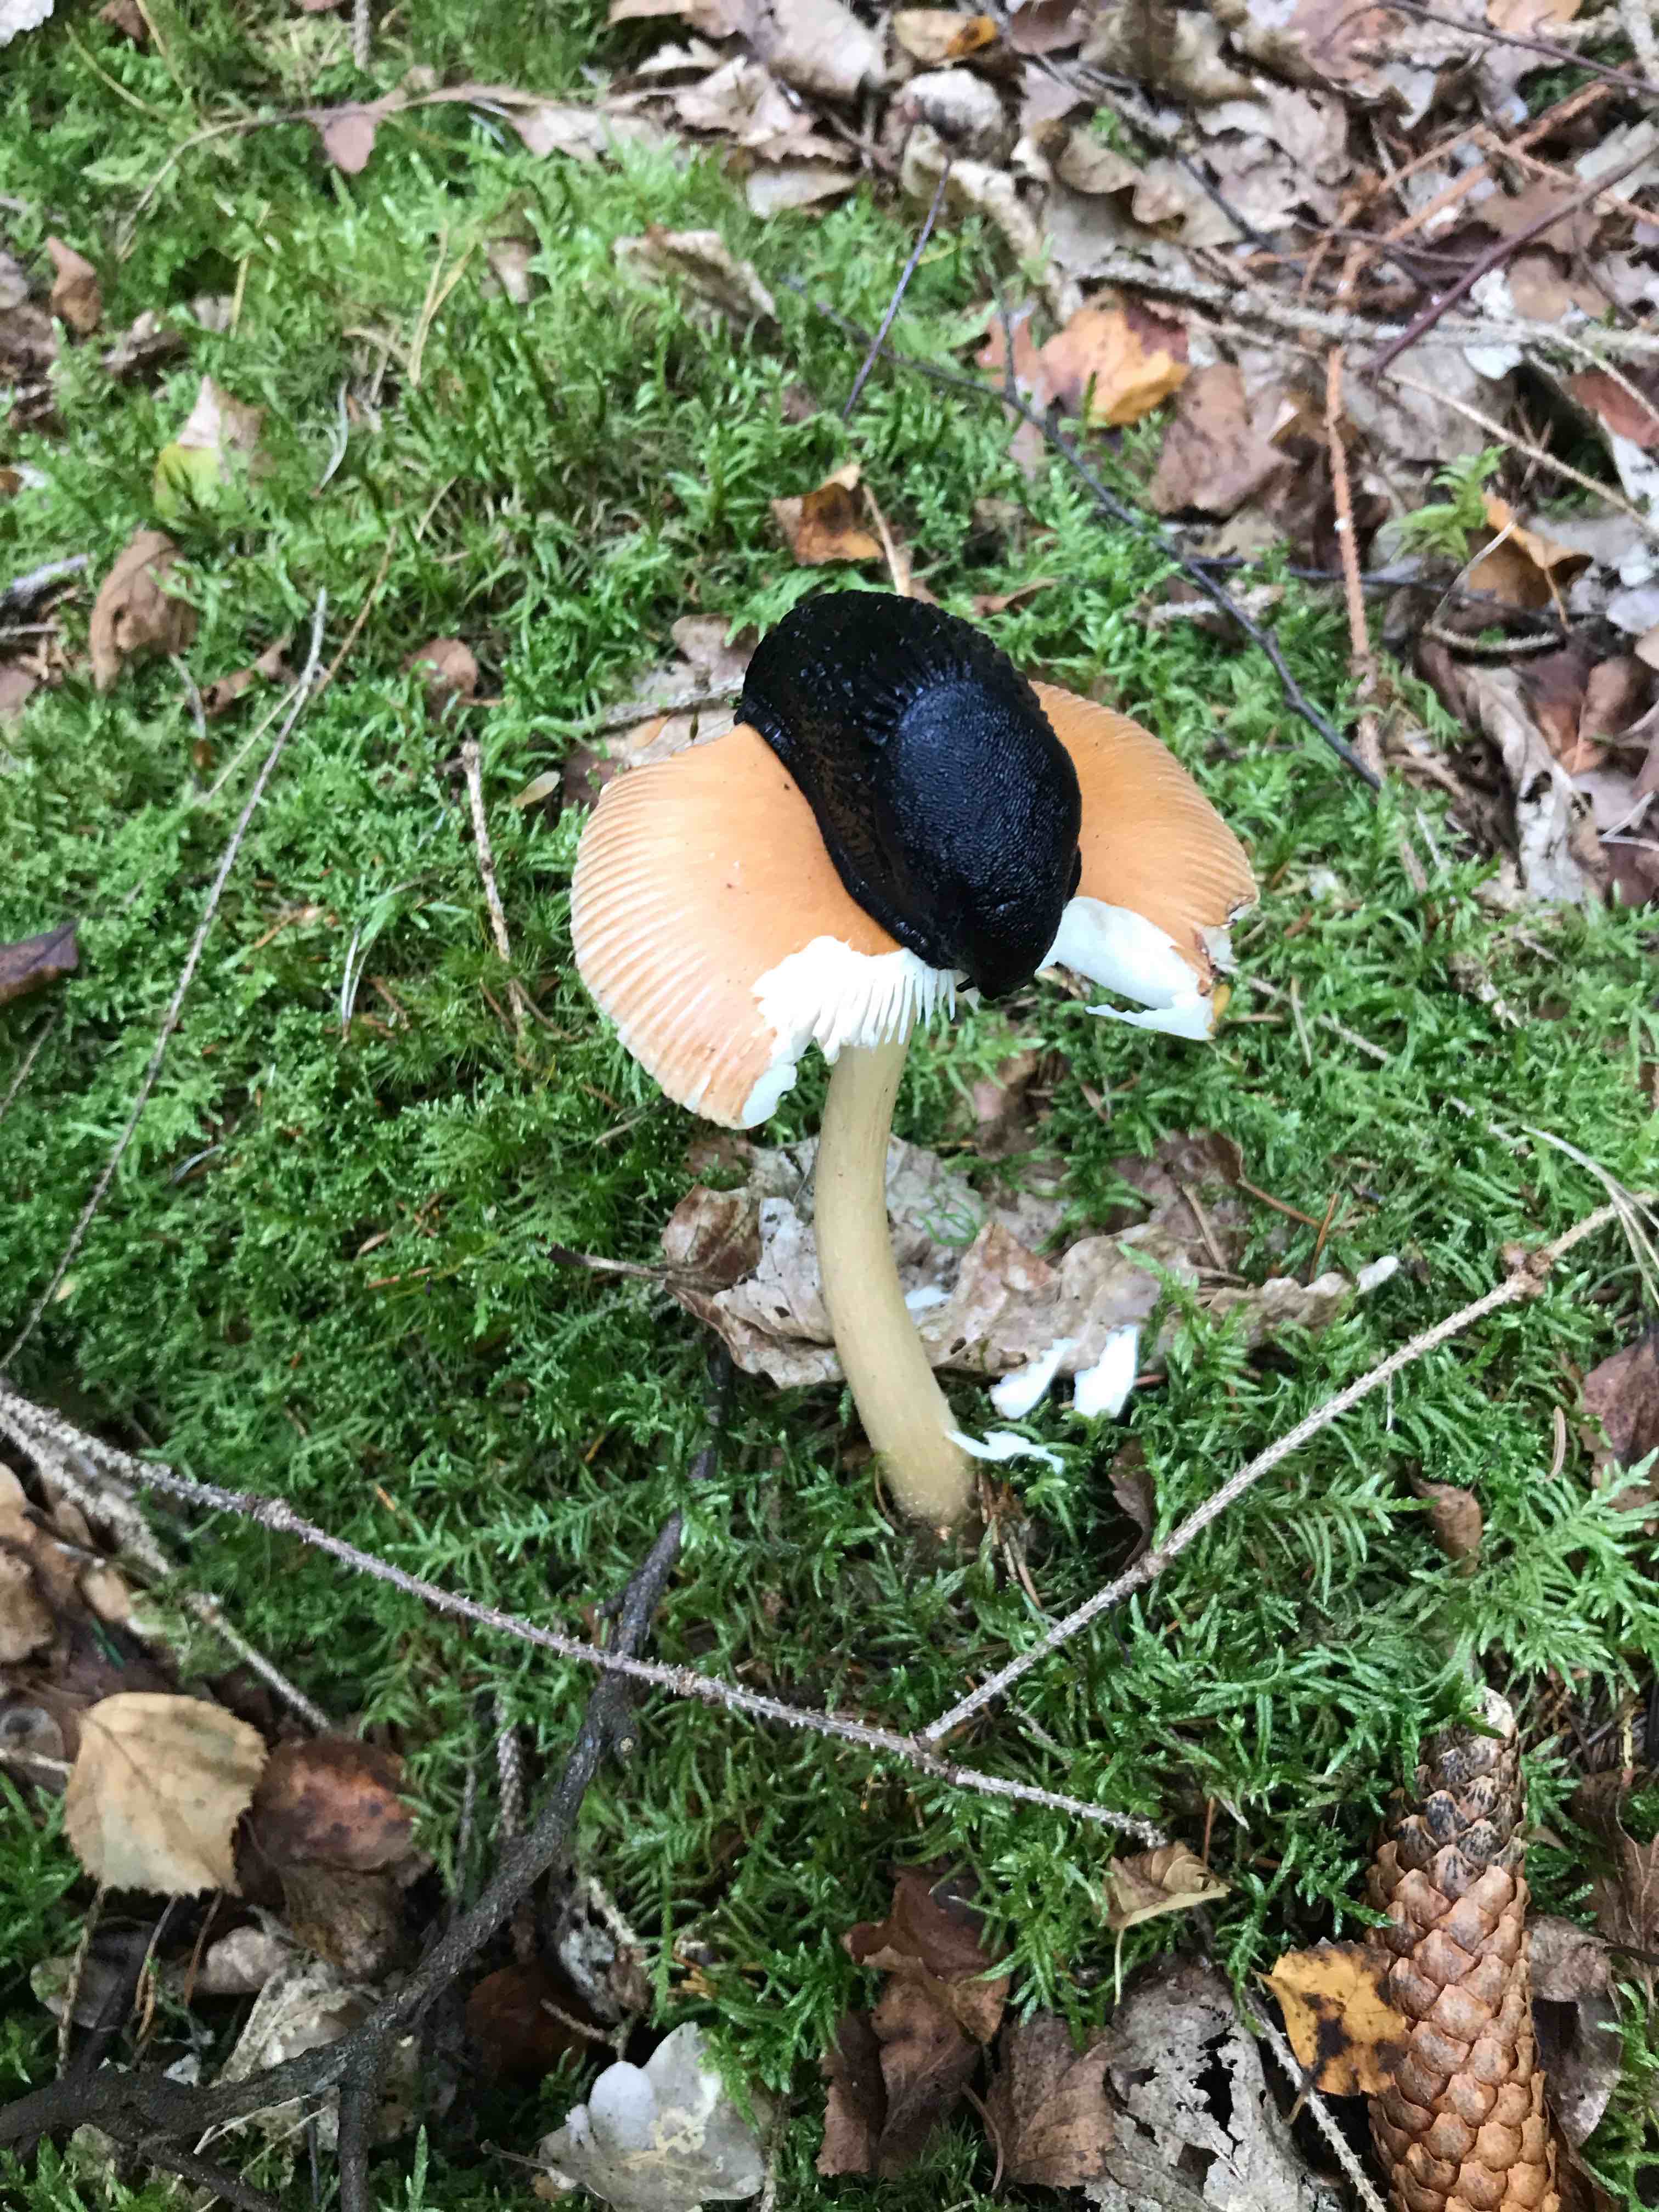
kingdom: Fungi
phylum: Basidiomycota
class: Agaricomycetes
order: Agaricales
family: Amanitaceae
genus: Amanita
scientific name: Amanita fulva
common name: brun kam-fluesvamp
